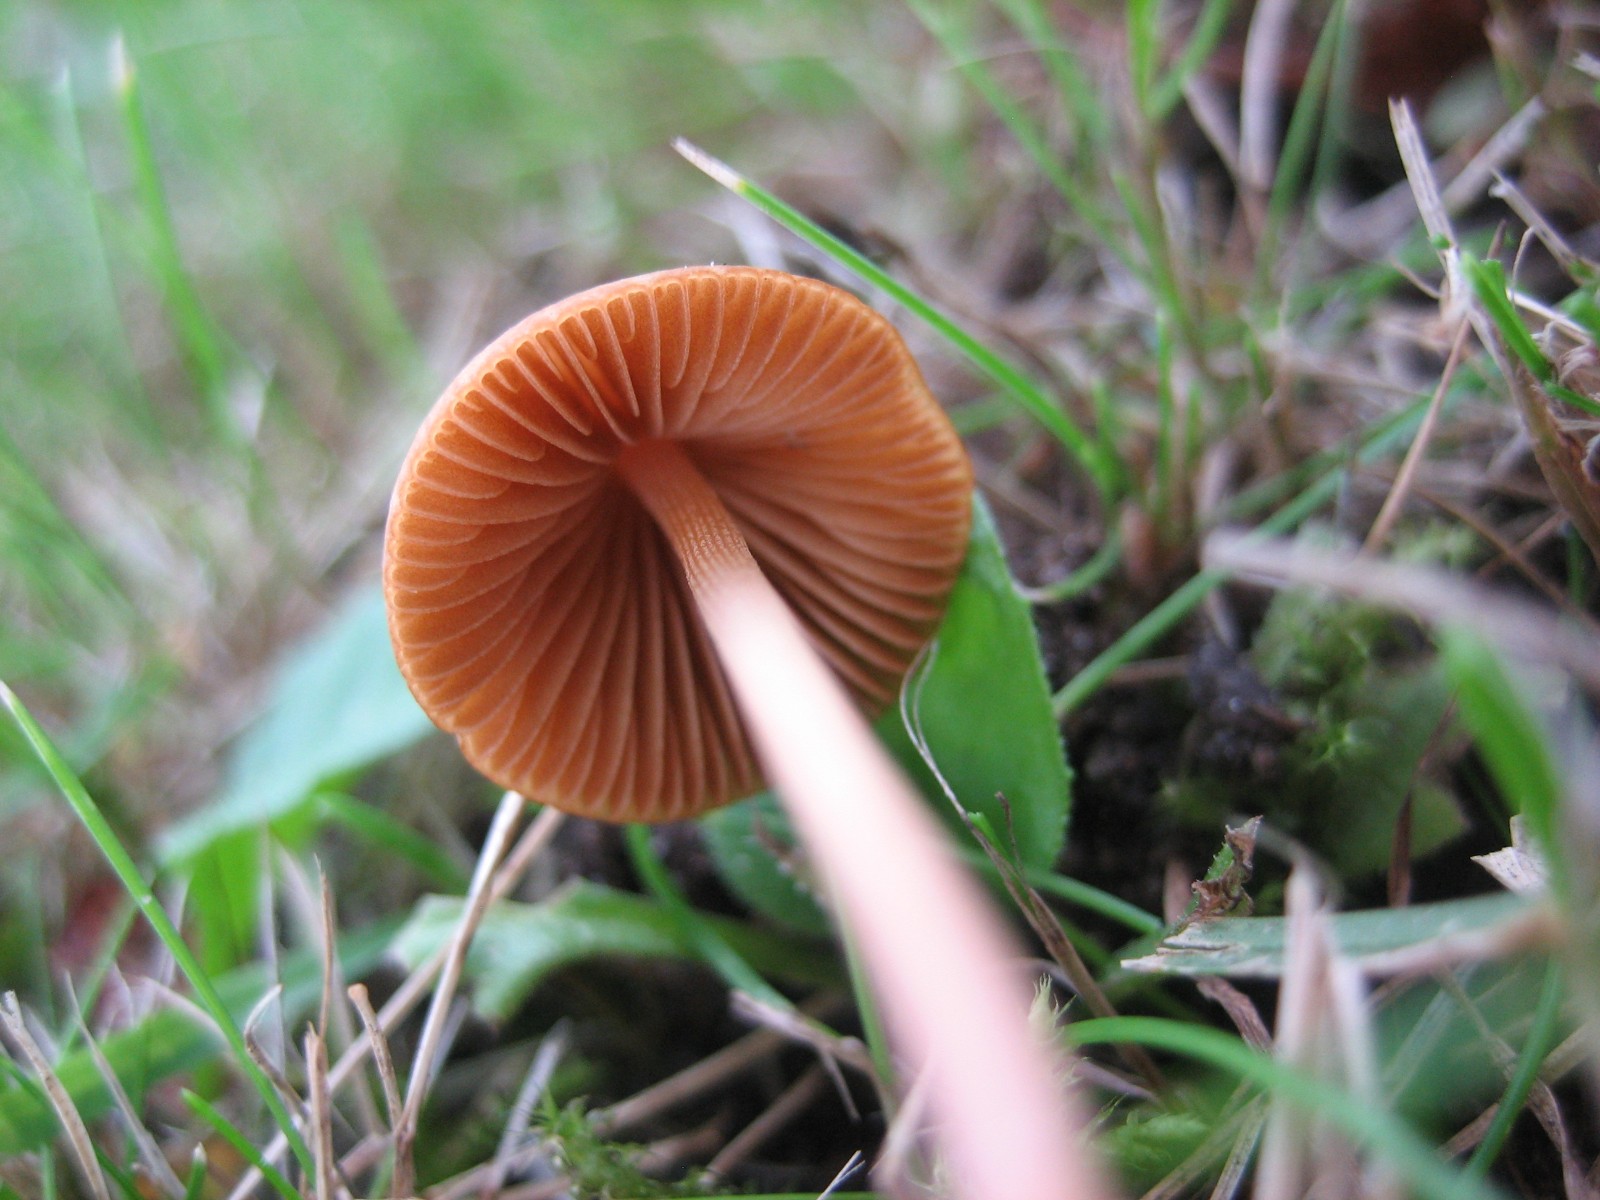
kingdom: Fungi
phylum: Basidiomycota
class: Agaricomycetes
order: Agaricales
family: Bolbitiaceae
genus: Conocybe
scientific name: Conocybe
